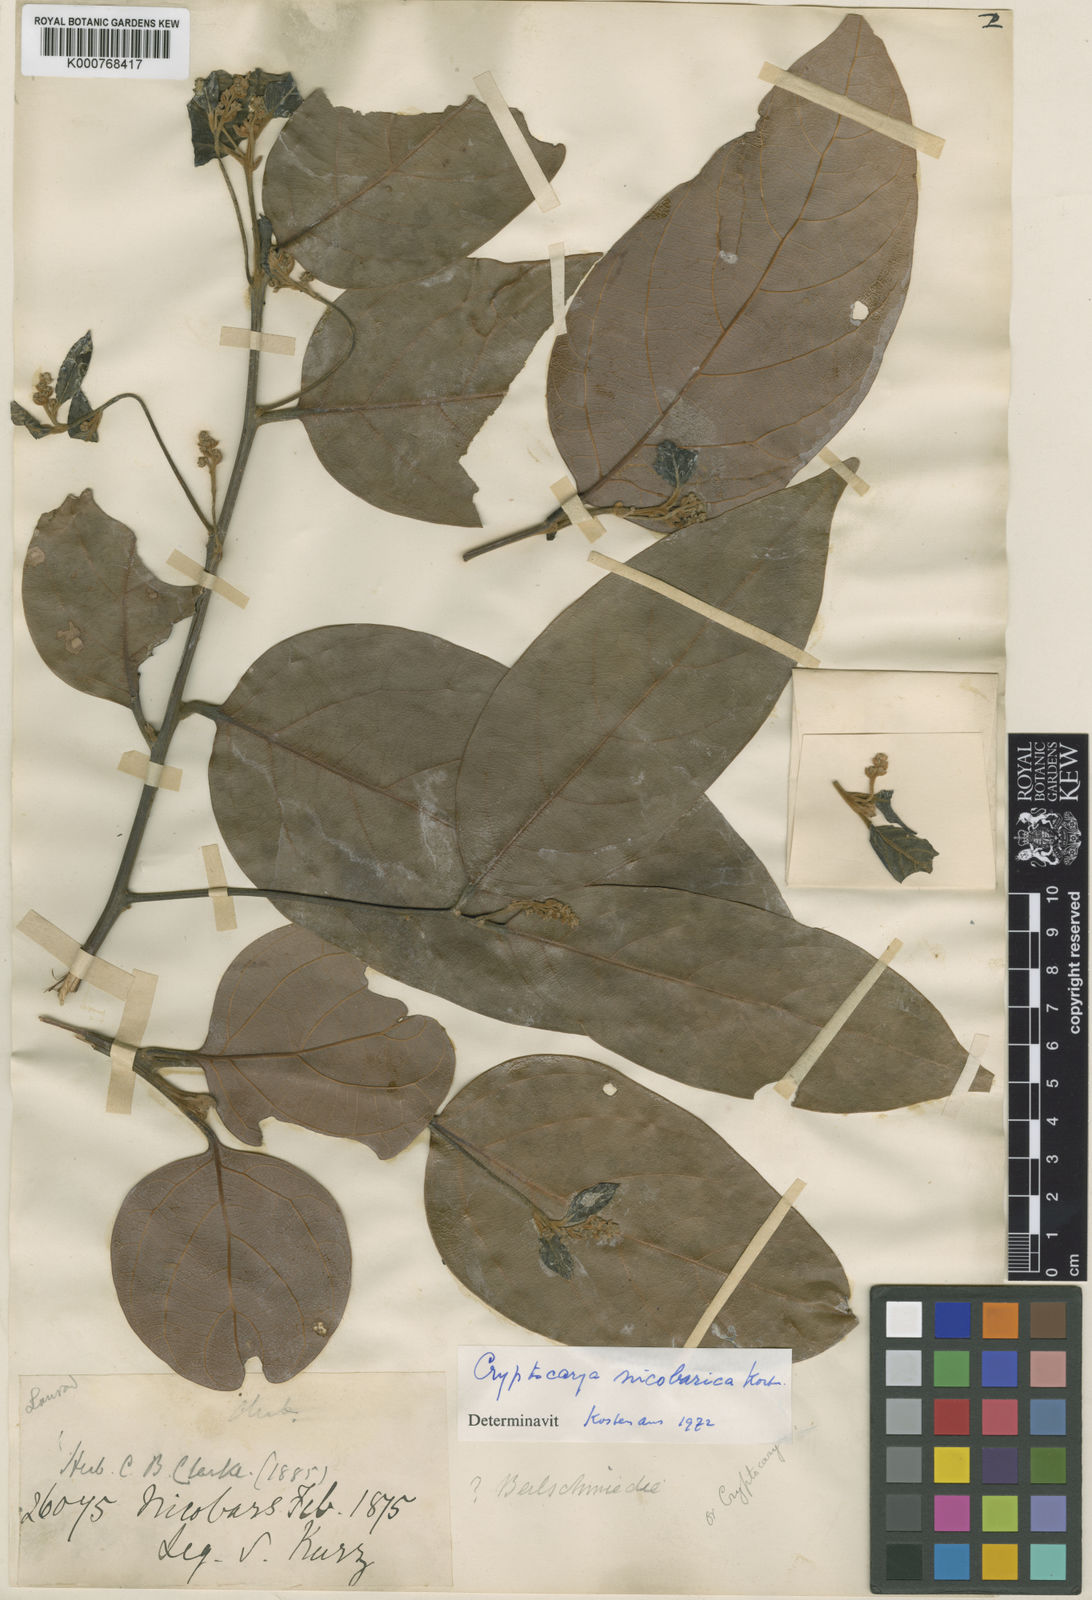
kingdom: Plantae
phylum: Tracheophyta
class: Magnoliopsida
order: Laurales
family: Lauraceae
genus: Cryptocarya
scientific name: Cryptocarya
